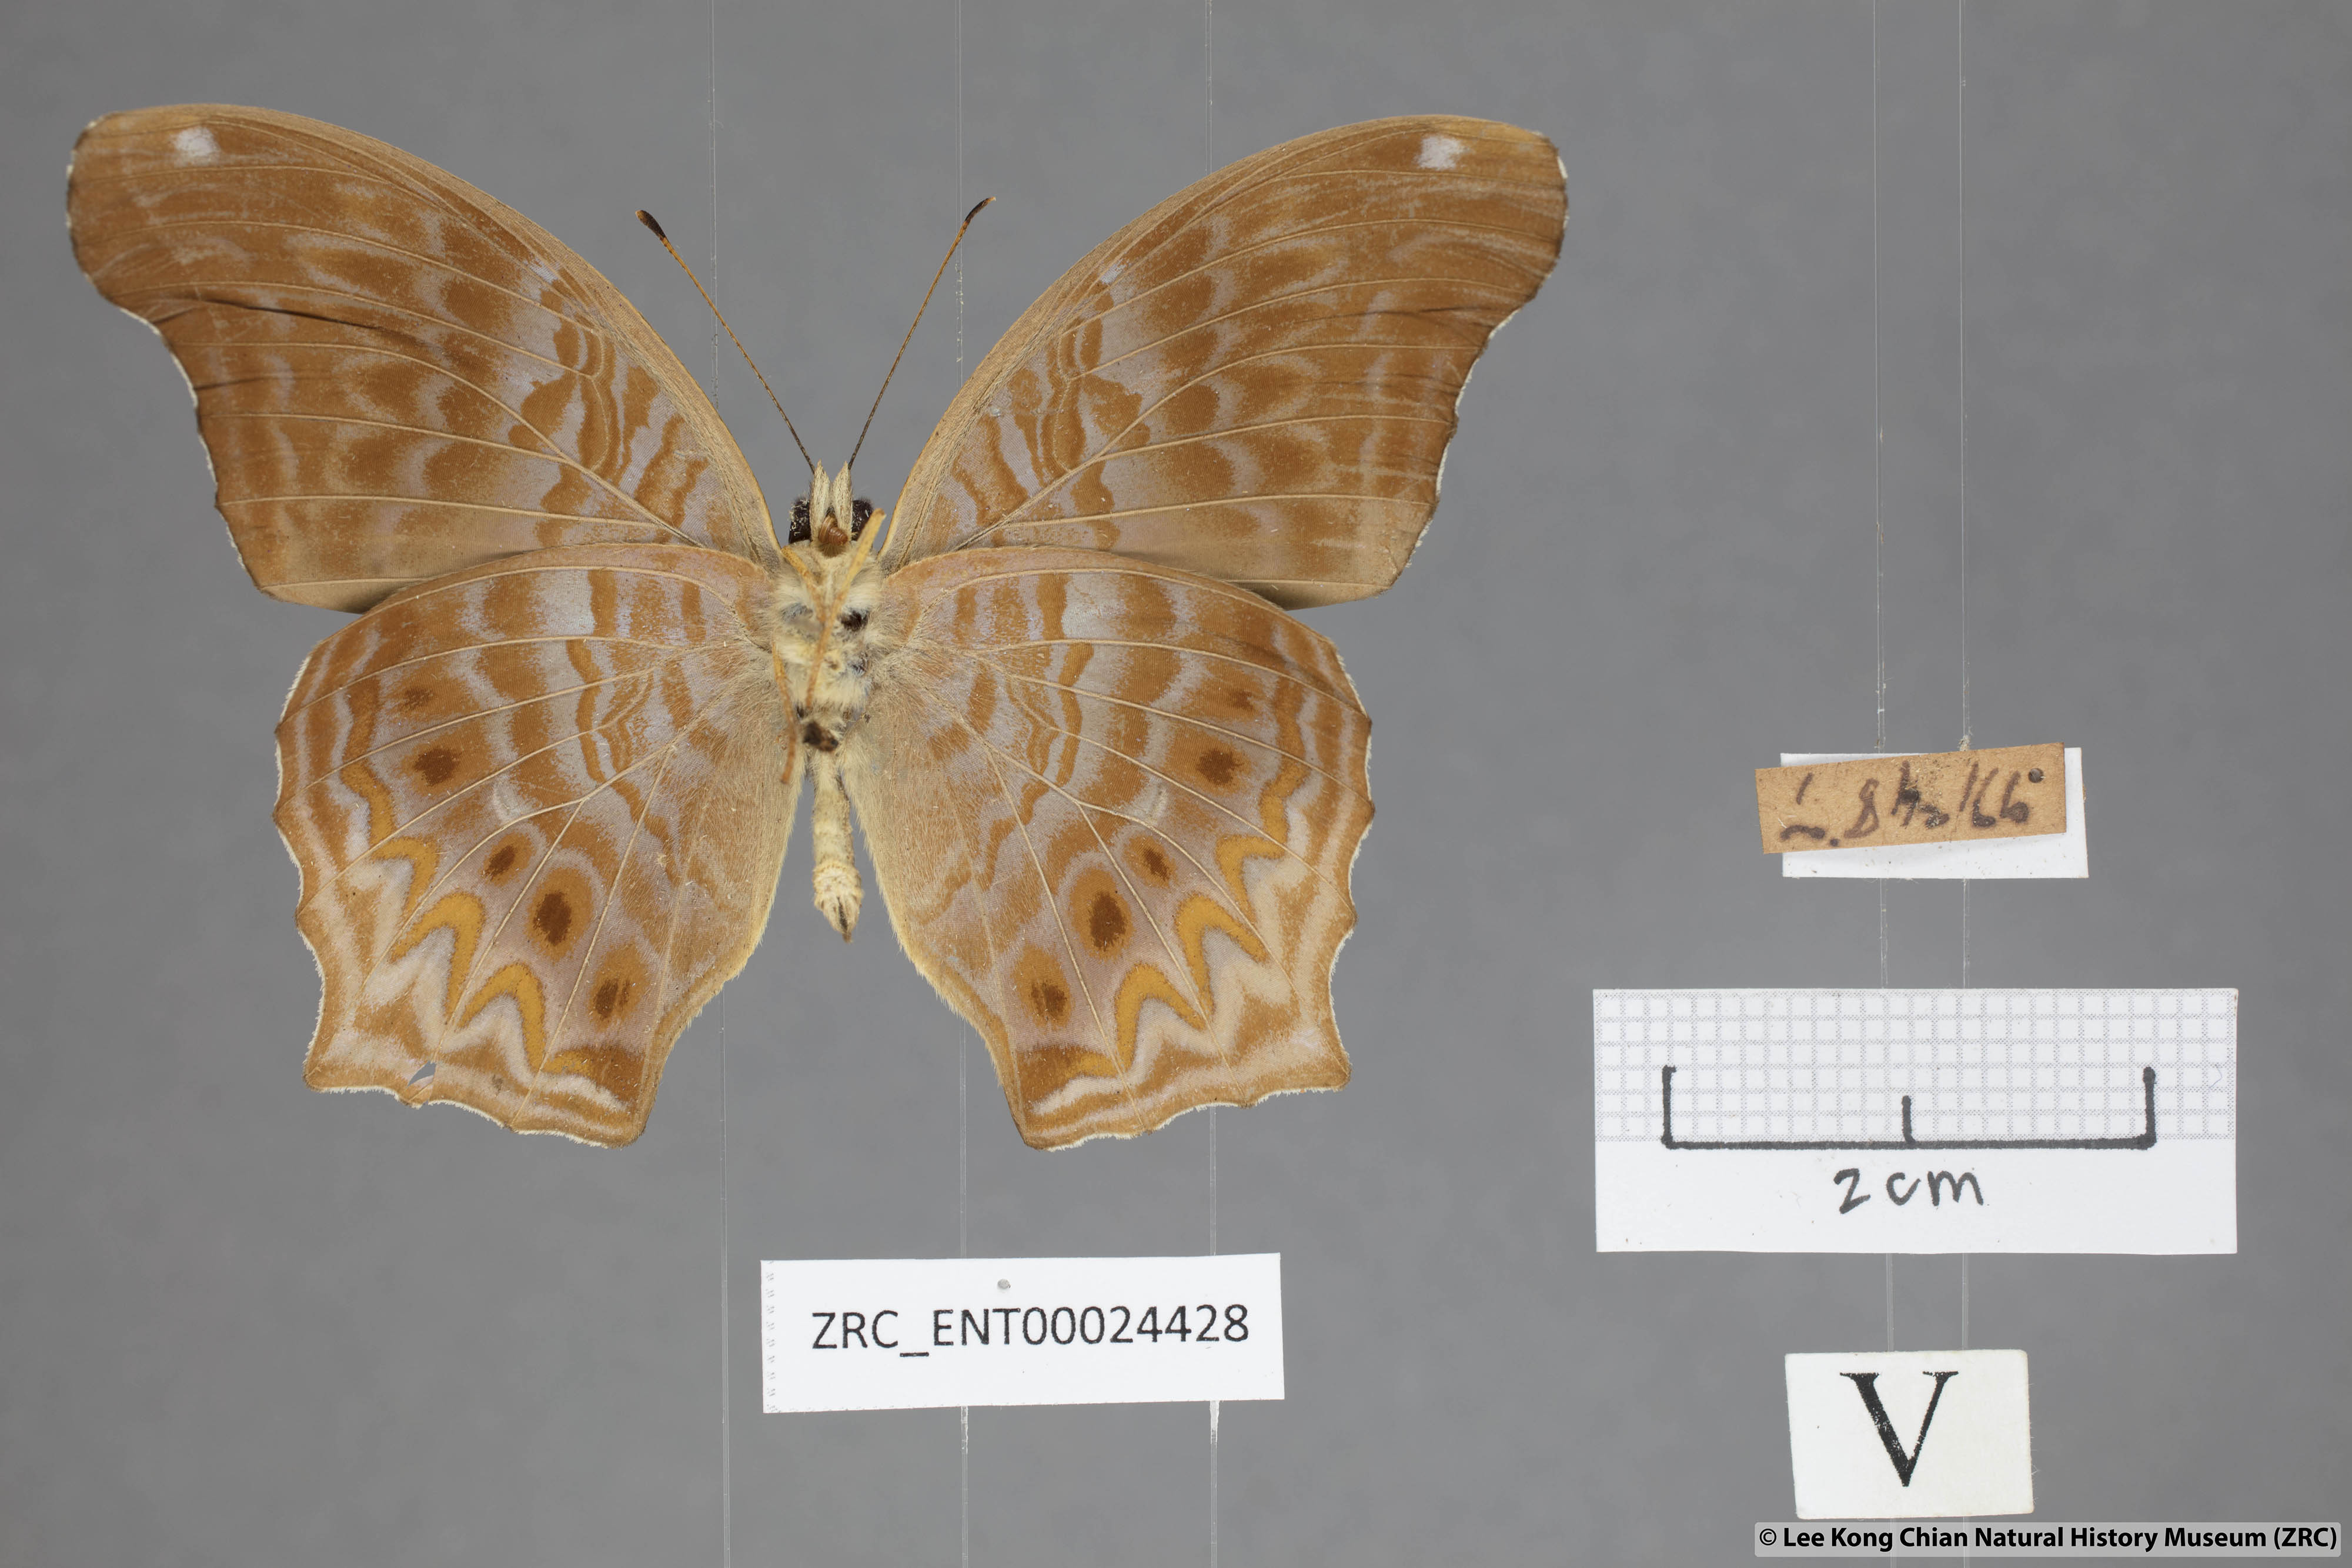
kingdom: Animalia
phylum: Arthropoda
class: Insecta
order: Lepidoptera
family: Nymphalidae
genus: Terinos
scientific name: Terinos clarissa
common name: Malayan assyrian
